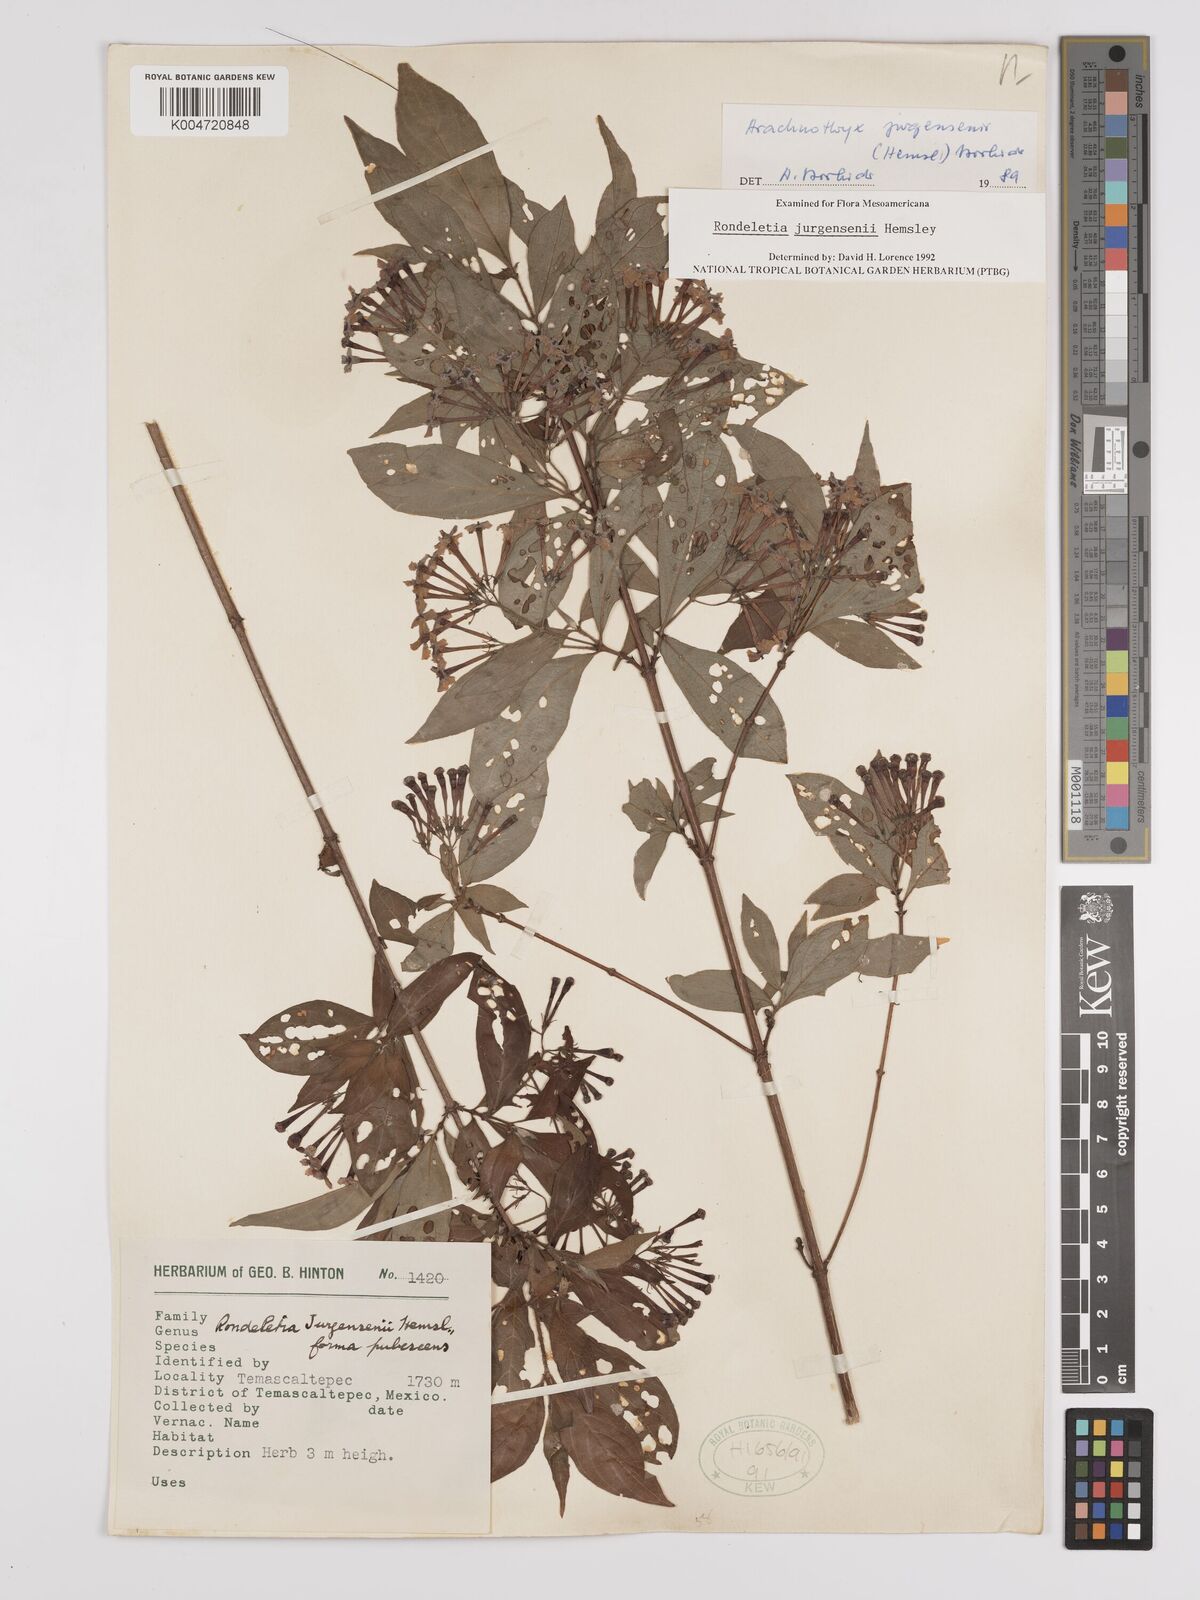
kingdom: Plantae
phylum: Tracheophyta
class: Magnoliopsida
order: Gentianales
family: Rubiaceae
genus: Arachnothryx
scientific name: Arachnothryx jurgensenii
